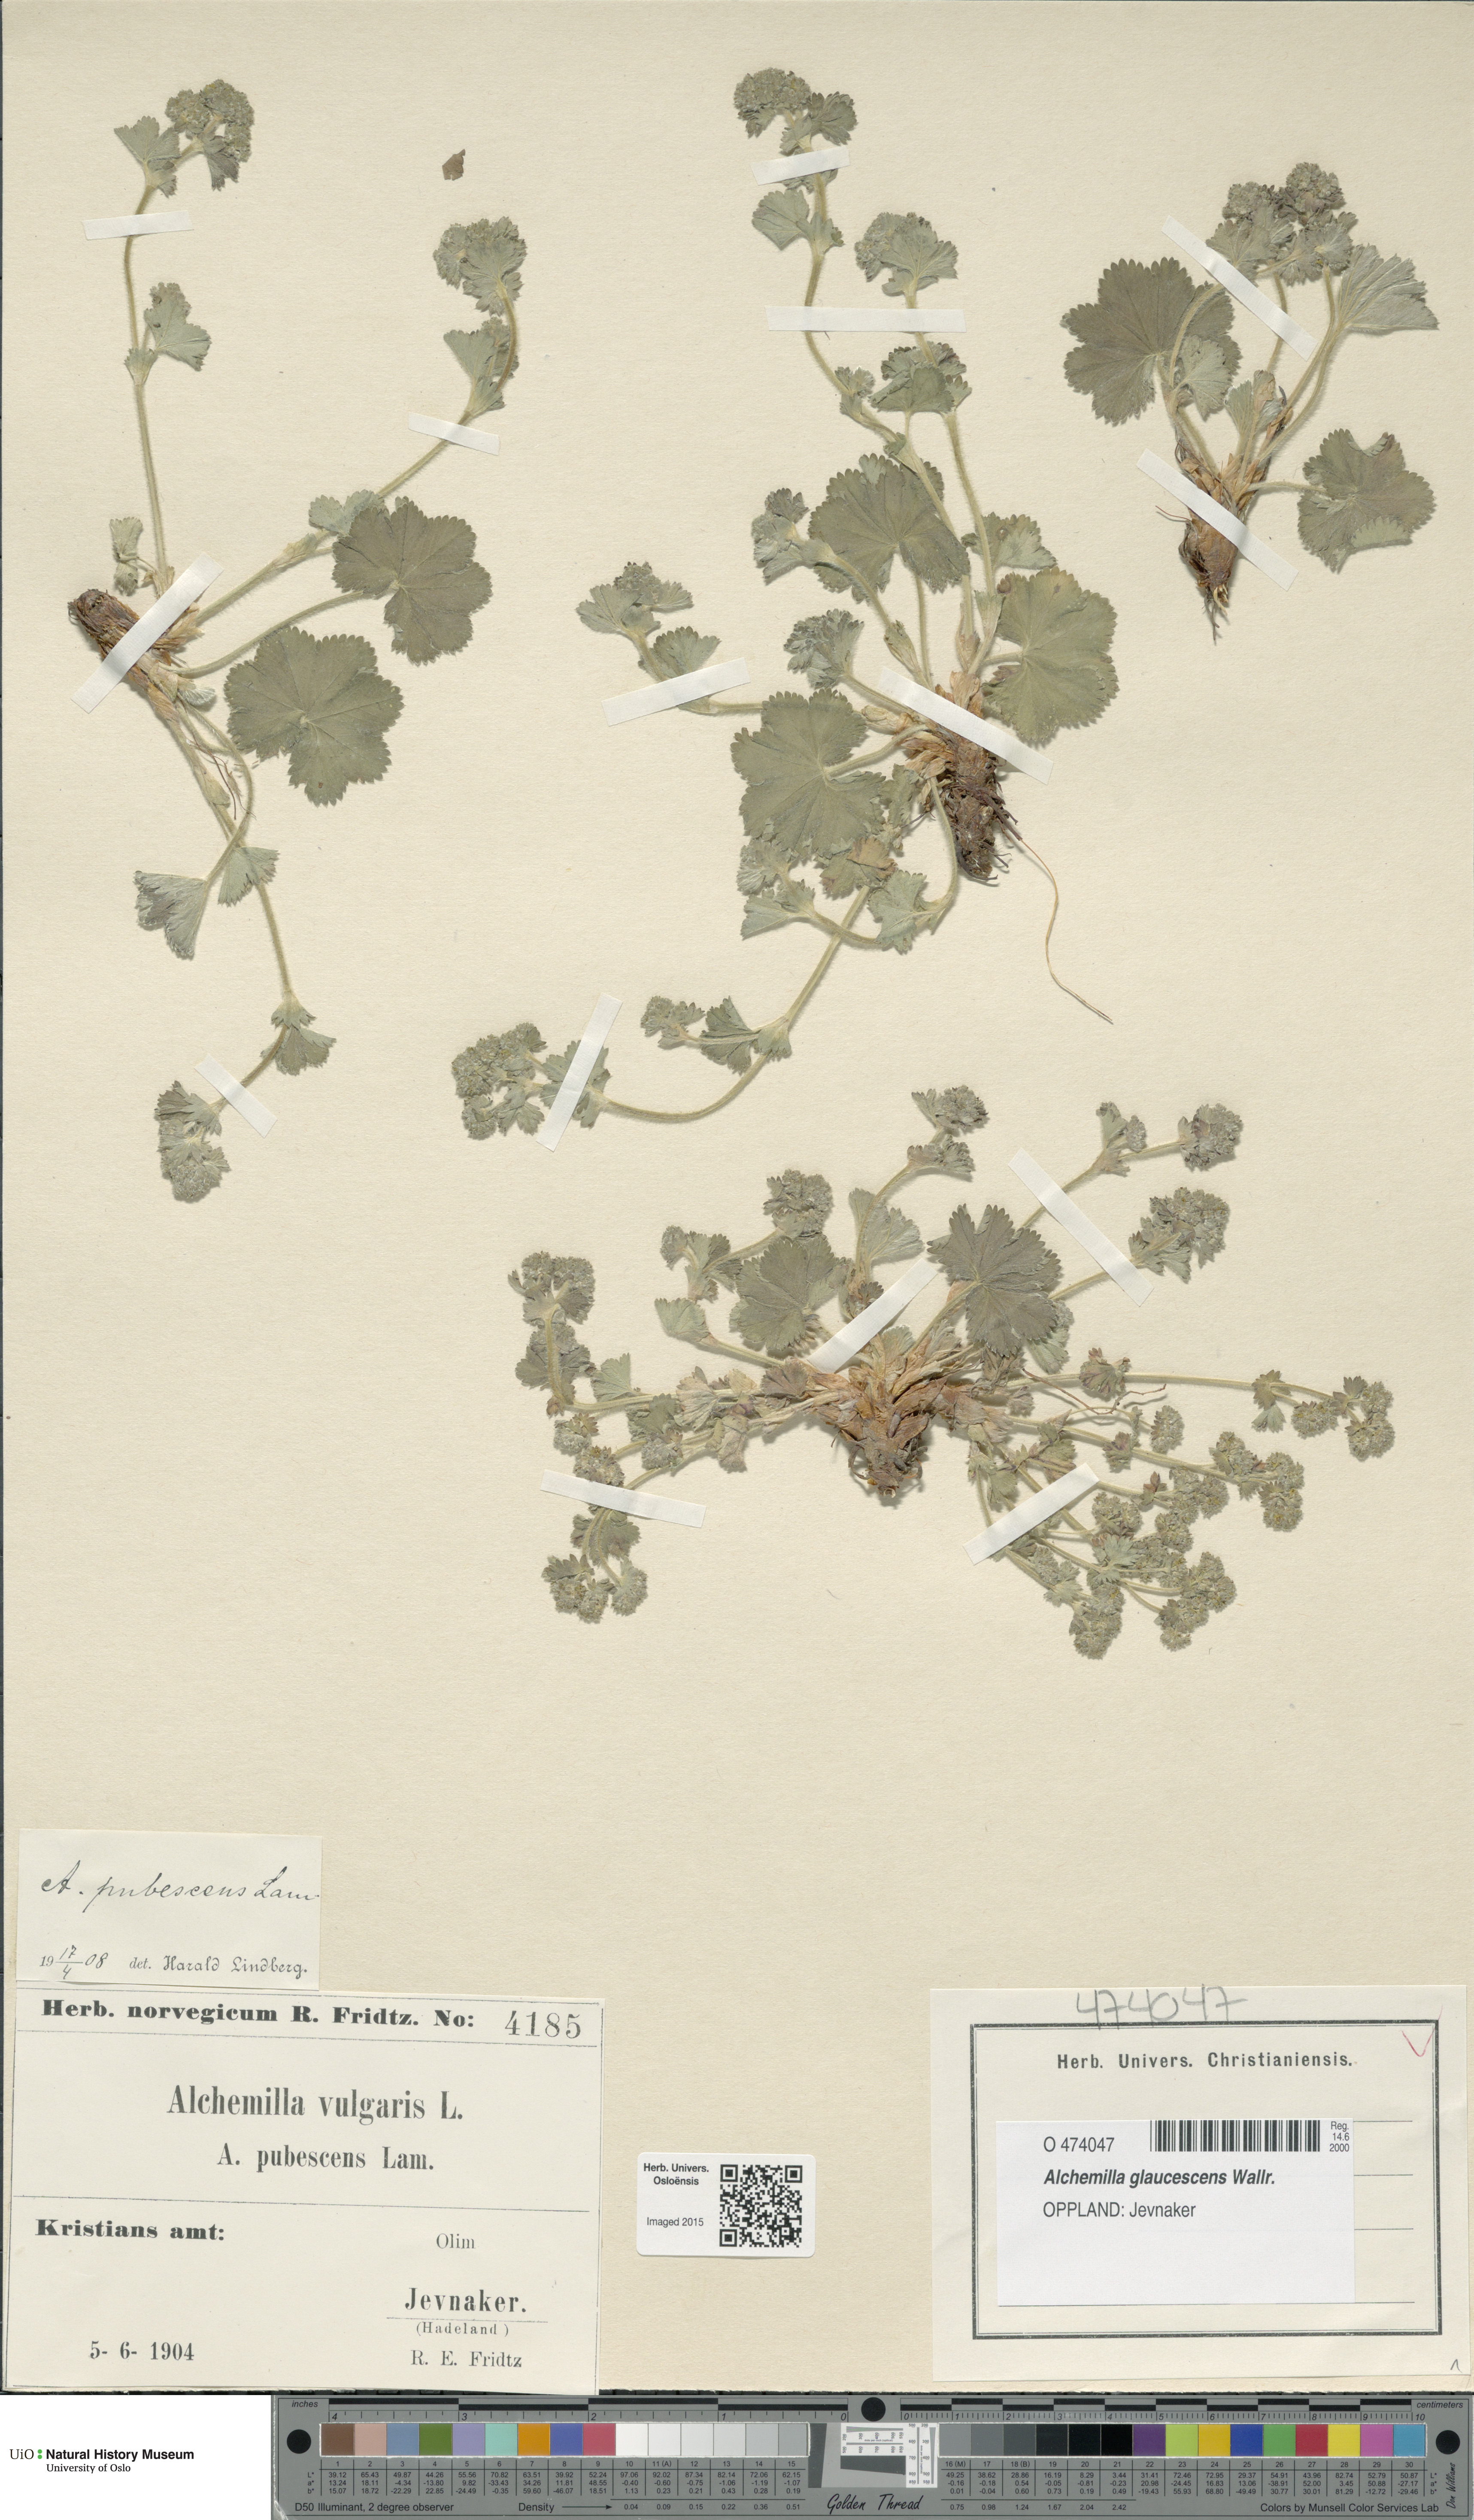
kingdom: Plantae
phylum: Tracheophyta
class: Magnoliopsida
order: Rosales
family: Rosaceae
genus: Alchemilla
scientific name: Alchemilla glaucescens
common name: Silky lady's mantle
